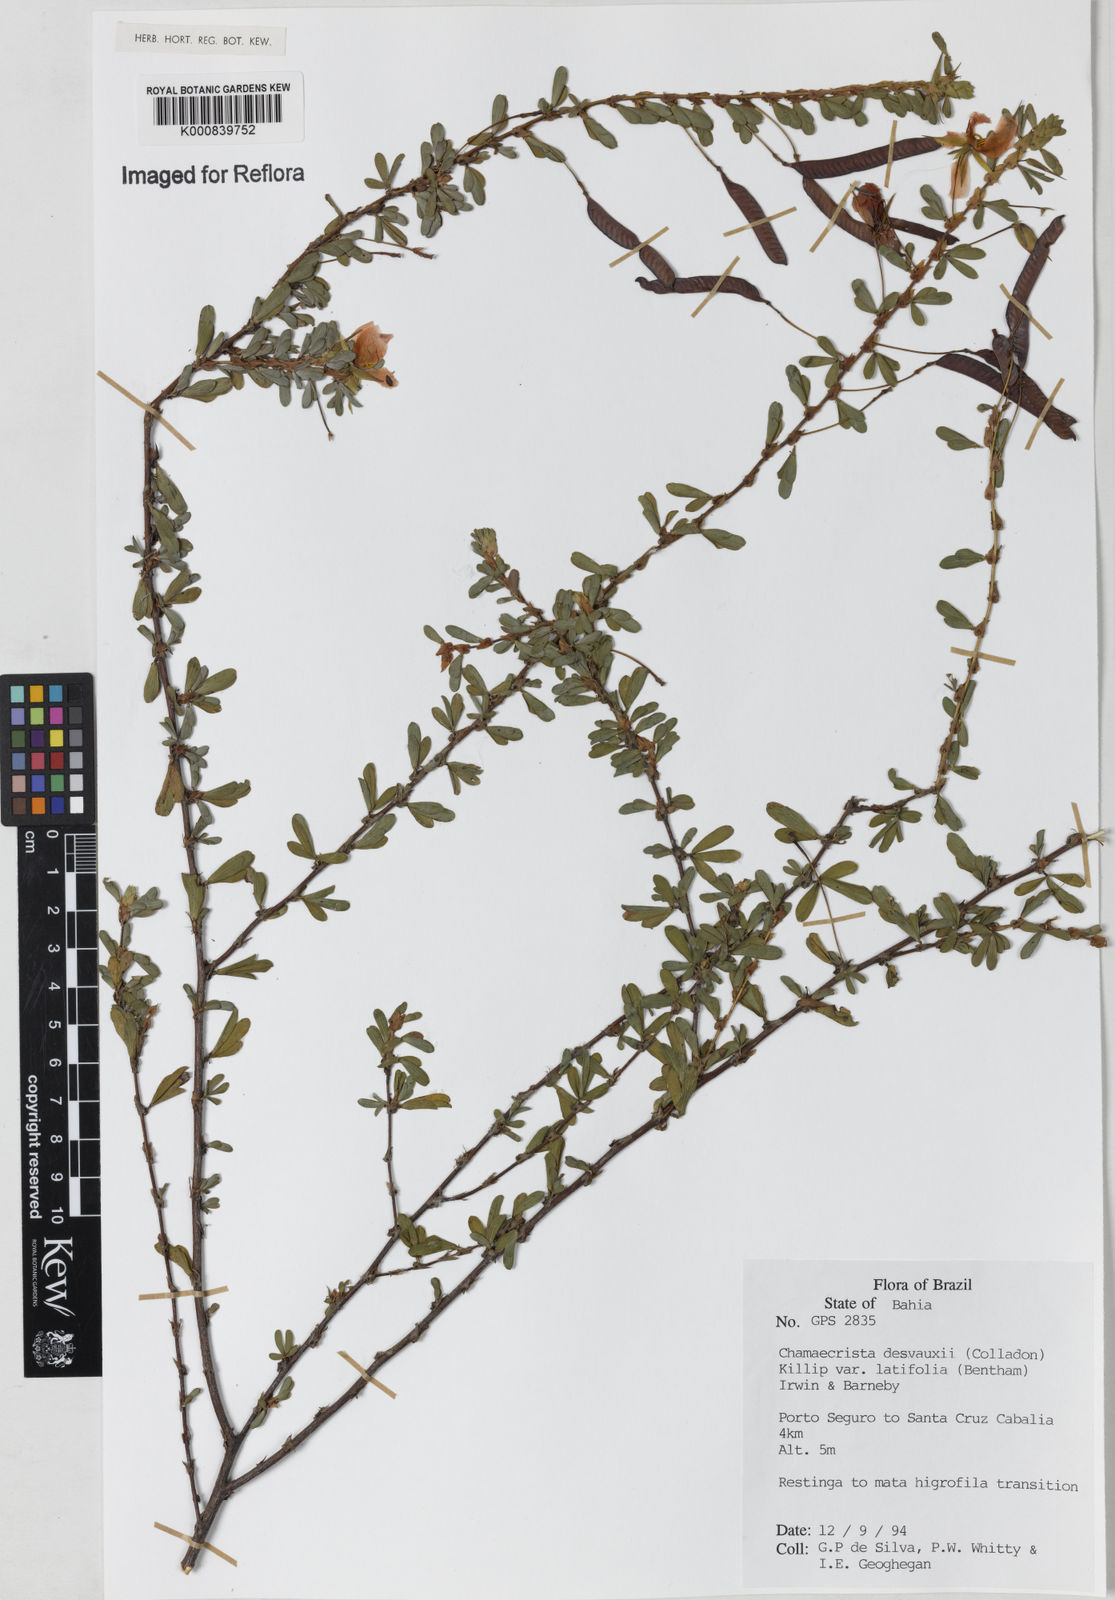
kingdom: Plantae
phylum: Tracheophyta
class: Magnoliopsida
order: Fabales
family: Fabaceae
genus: Chamaecrista
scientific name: Chamaecrista desvauxii
